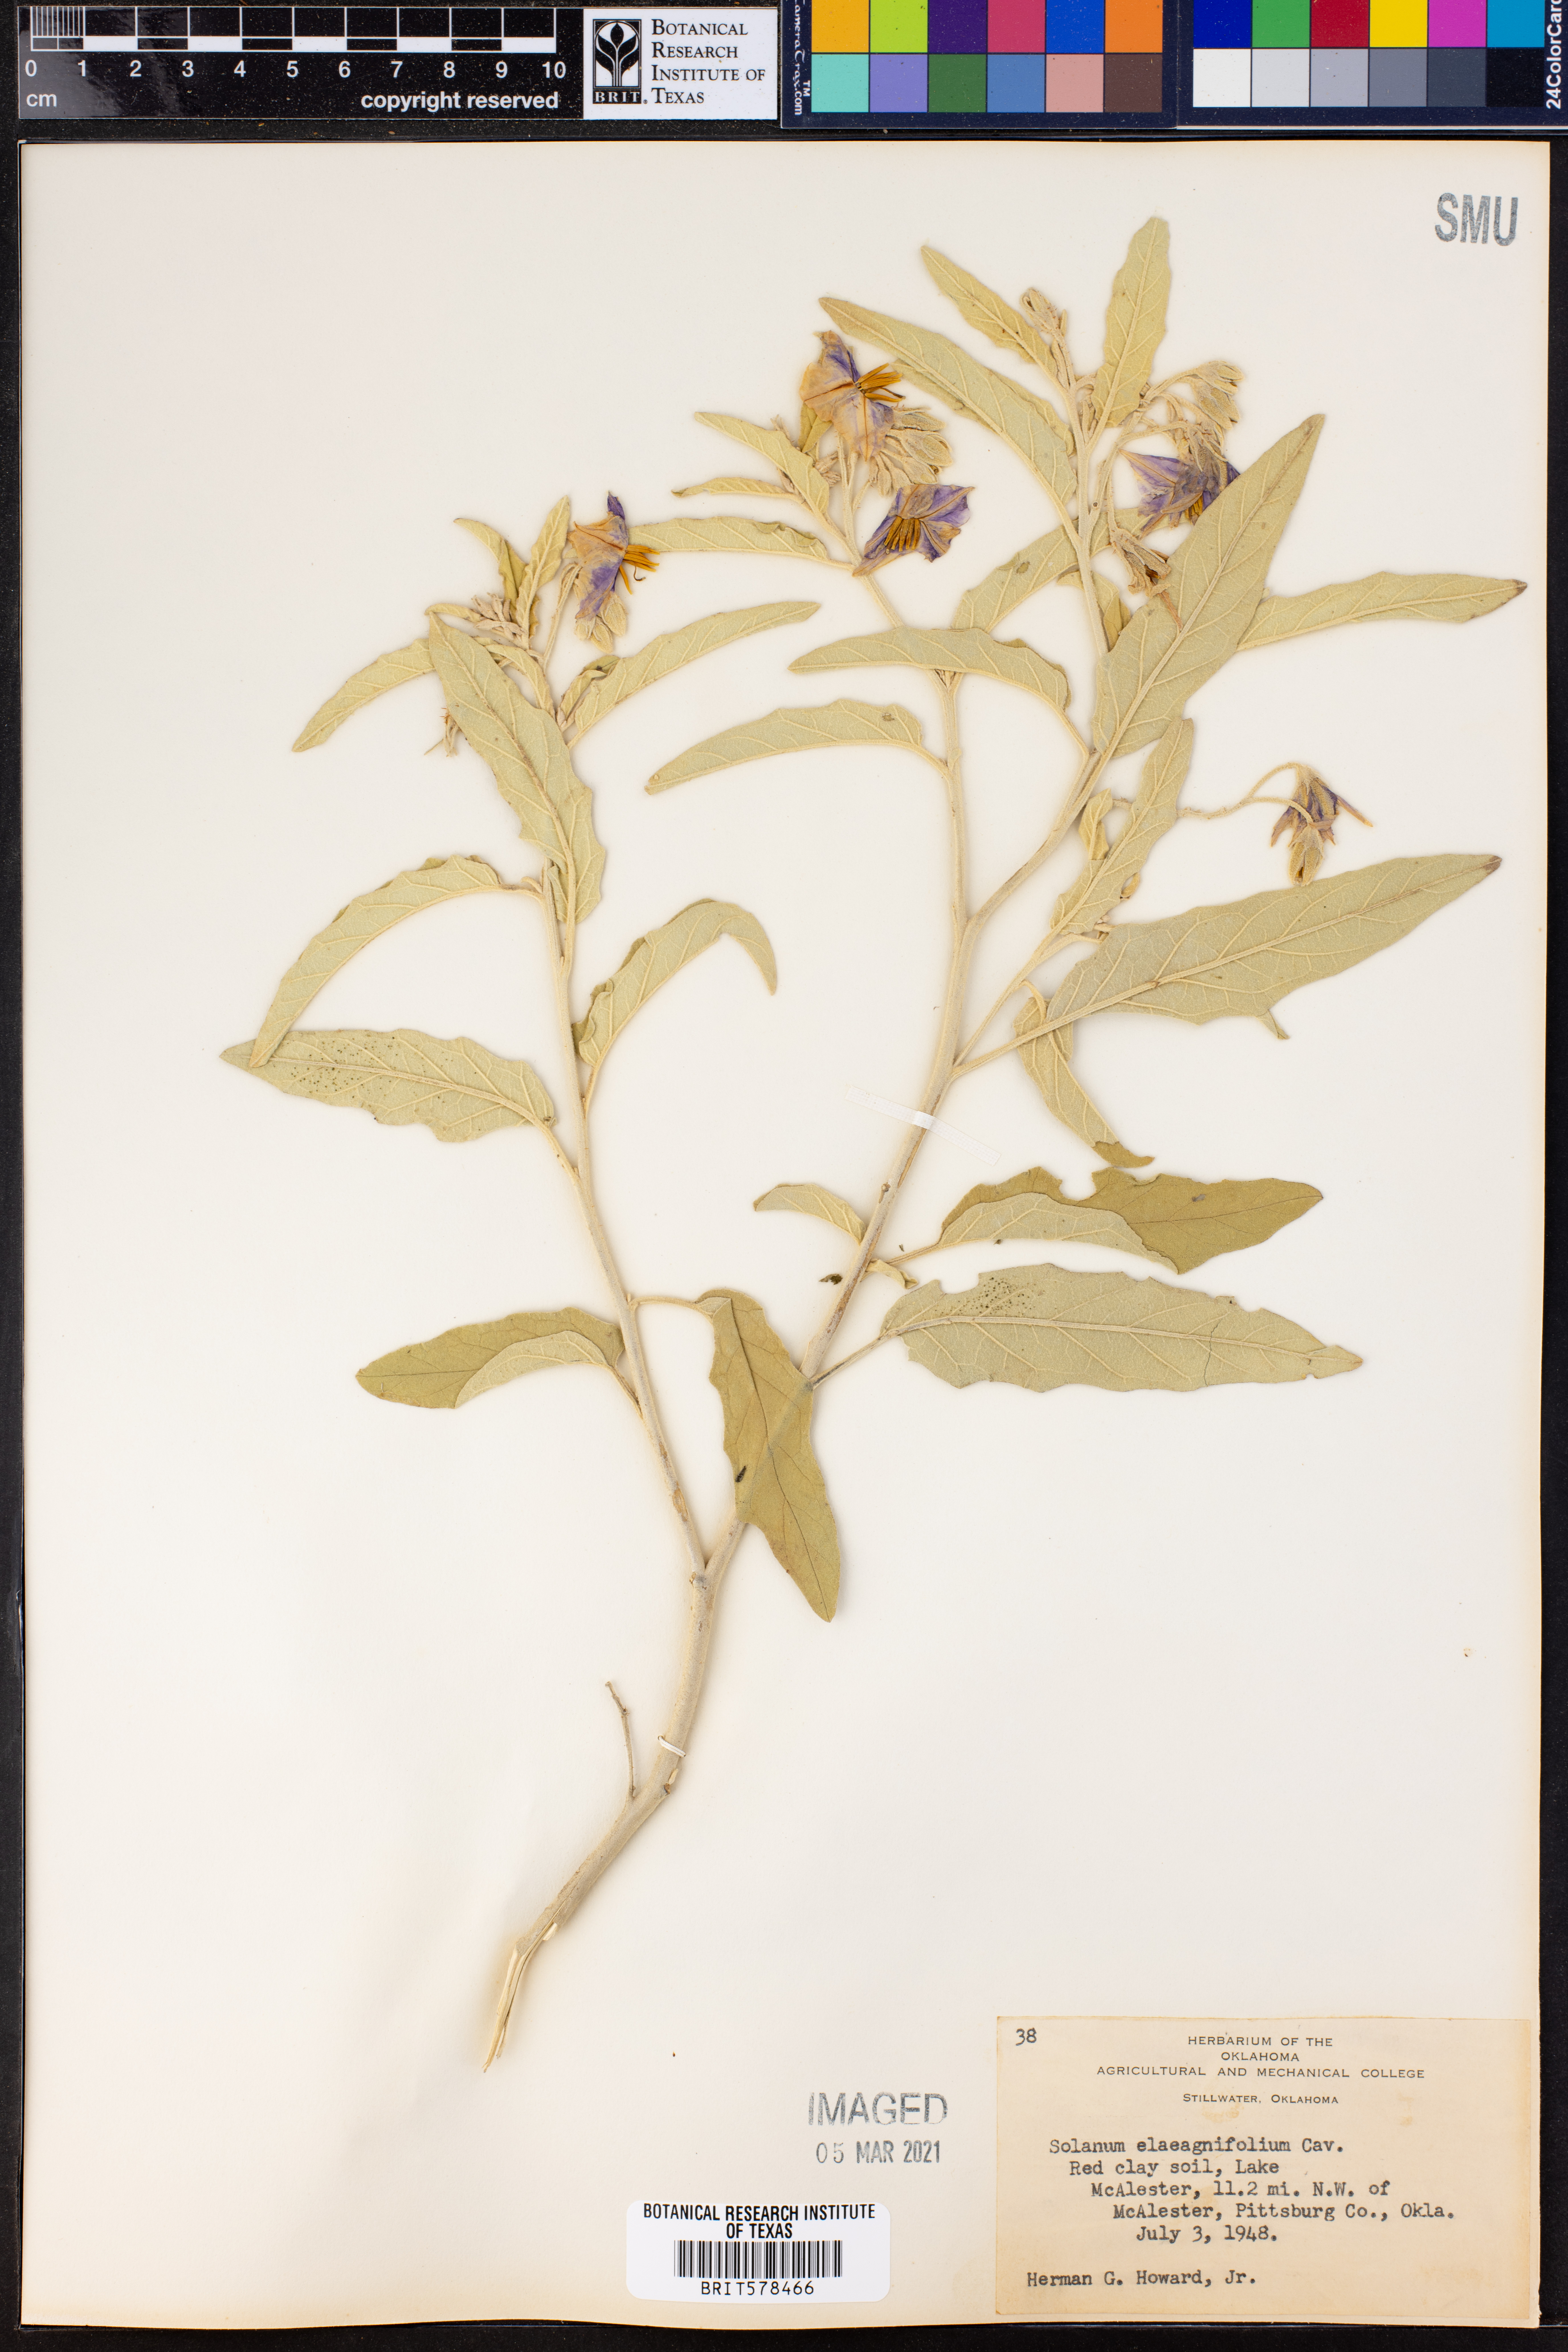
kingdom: Plantae
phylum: Tracheophyta
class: Magnoliopsida
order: Solanales
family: Solanaceae
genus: Solanum
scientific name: Solanum elaeagnifolium
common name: Silverleaf nightshade
